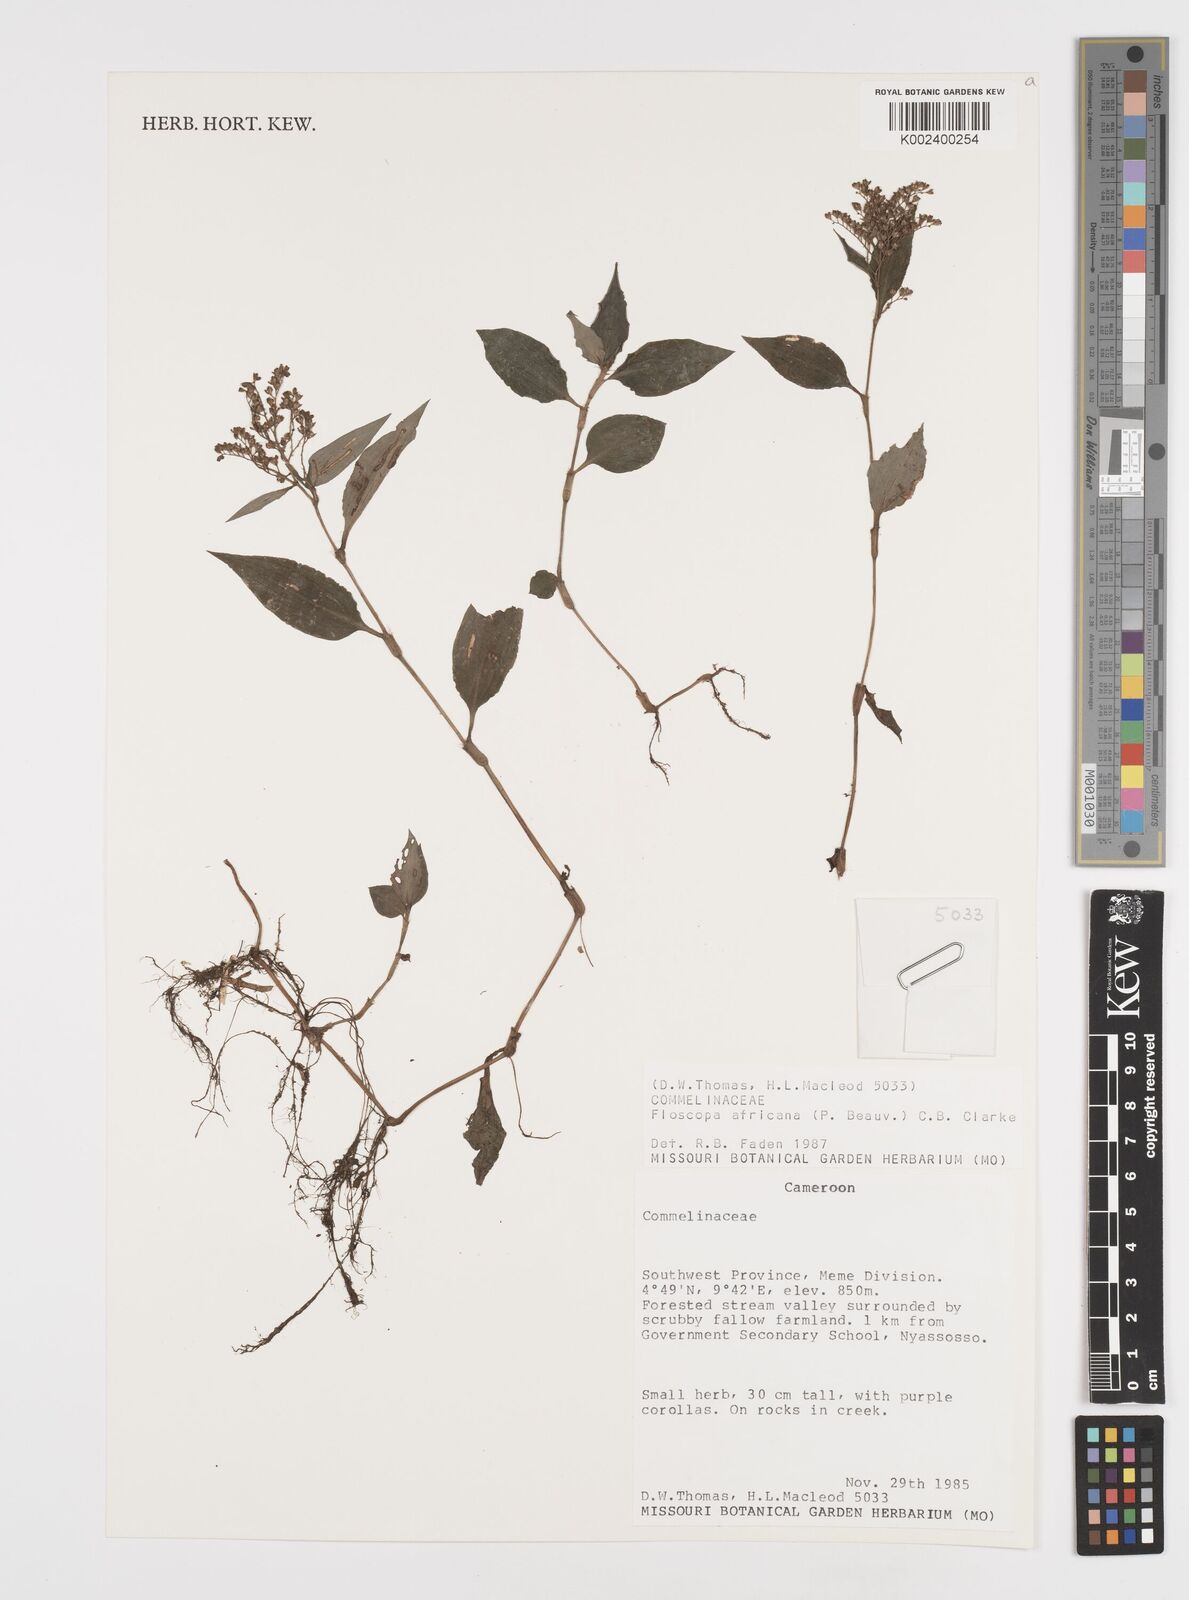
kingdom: Plantae
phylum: Tracheophyta
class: Liliopsida
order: Commelinales
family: Commelinaceae
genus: Floscopa
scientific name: Floscopa africana
